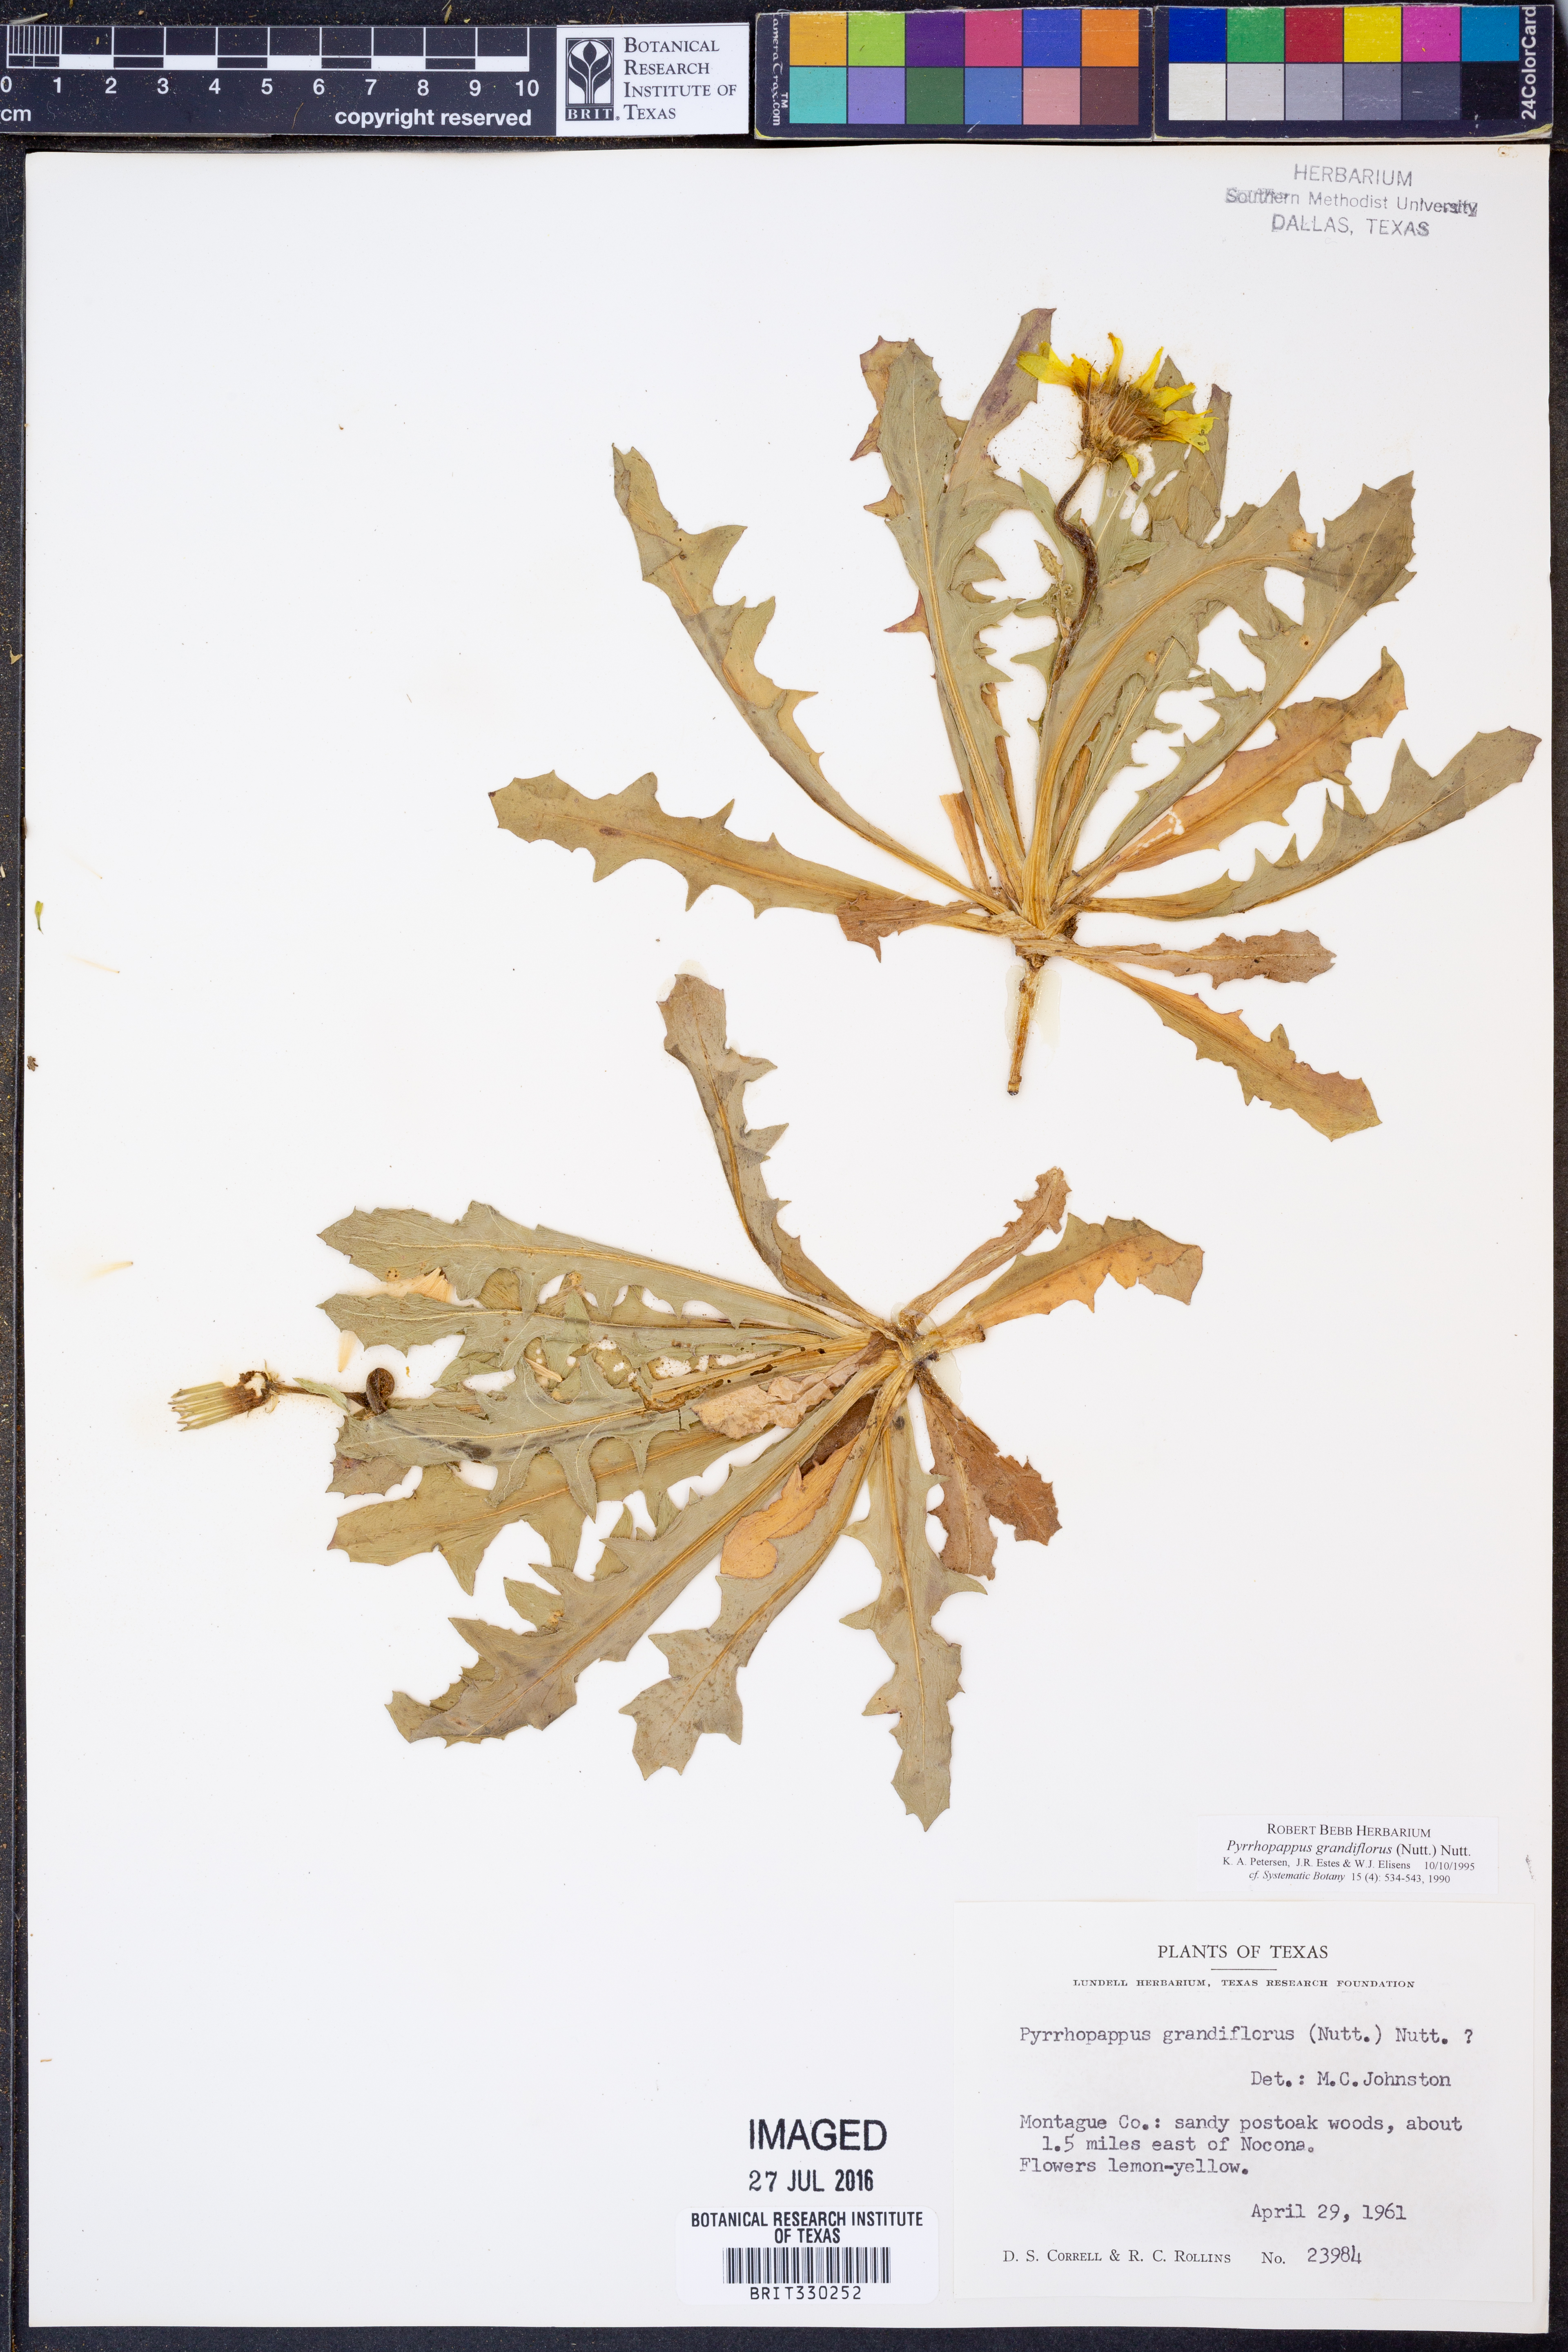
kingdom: Plantae
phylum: Tracheophyta
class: Magnoliopsida
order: Asterales
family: Asteraceae
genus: Pyrrhopappus
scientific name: Pyrrhopappus grandiflorus
